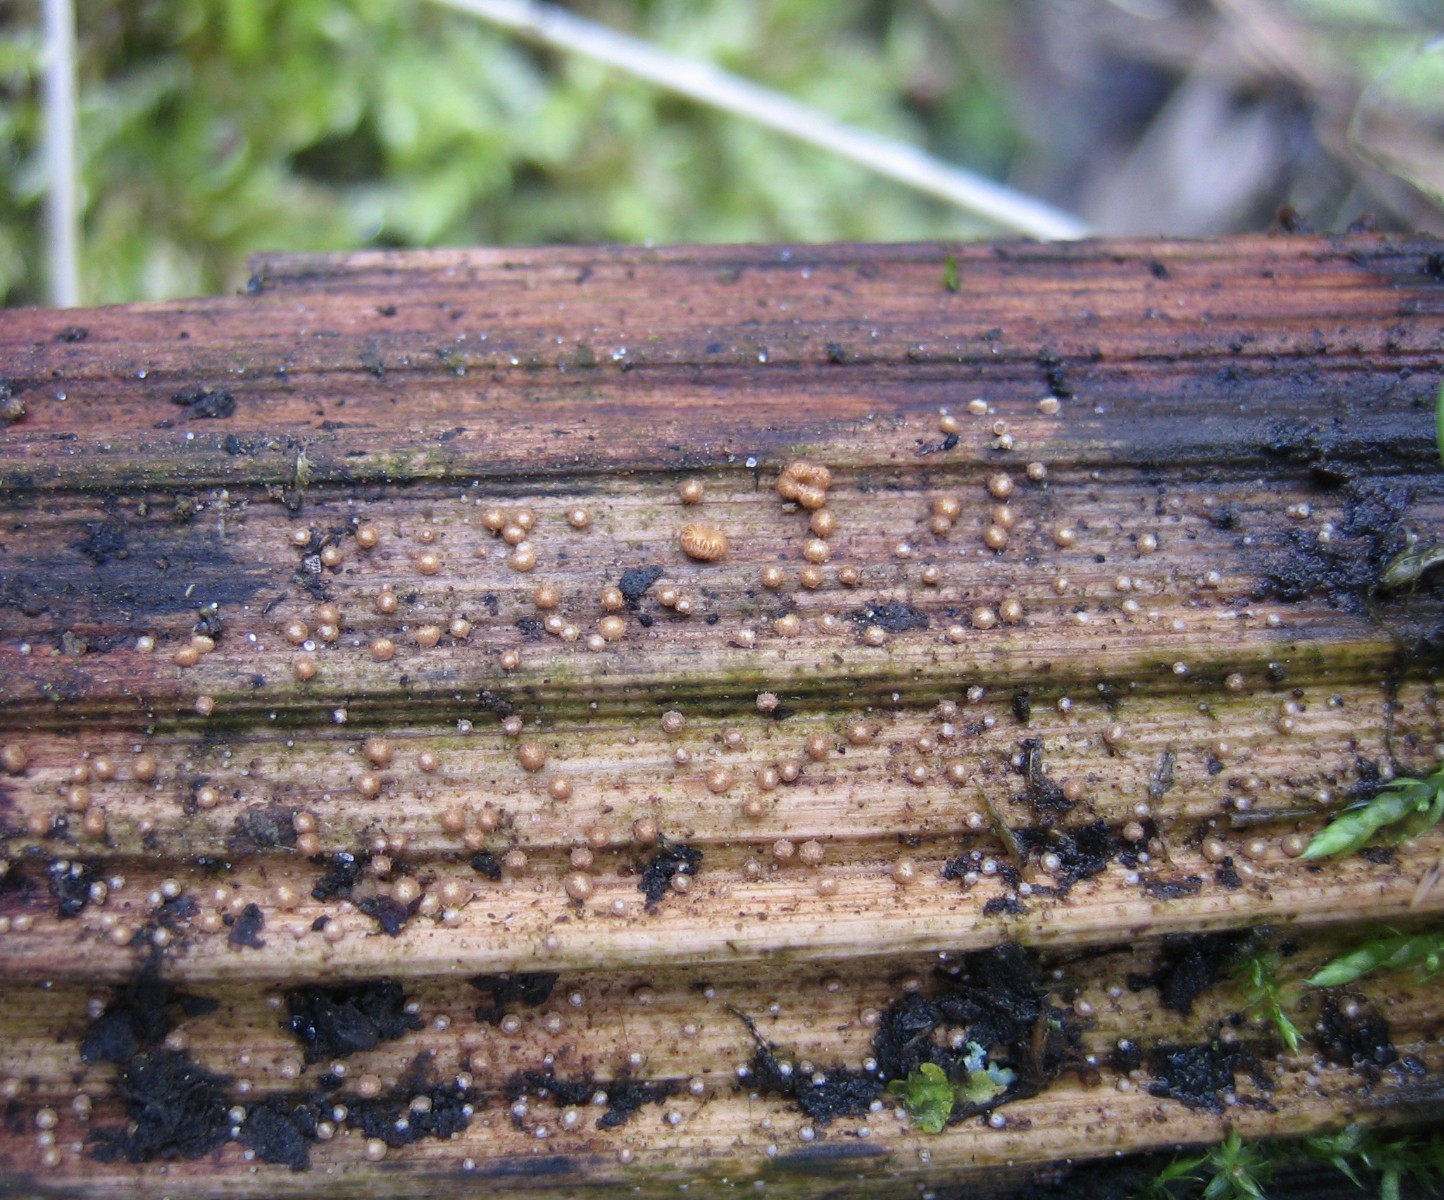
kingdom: Fungi
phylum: Ascomycota
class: Leotiomycetes
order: Helotiales
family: Hyaloscyphaceae
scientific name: Hyaloscyphaceae
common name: frynseskivefamilien
